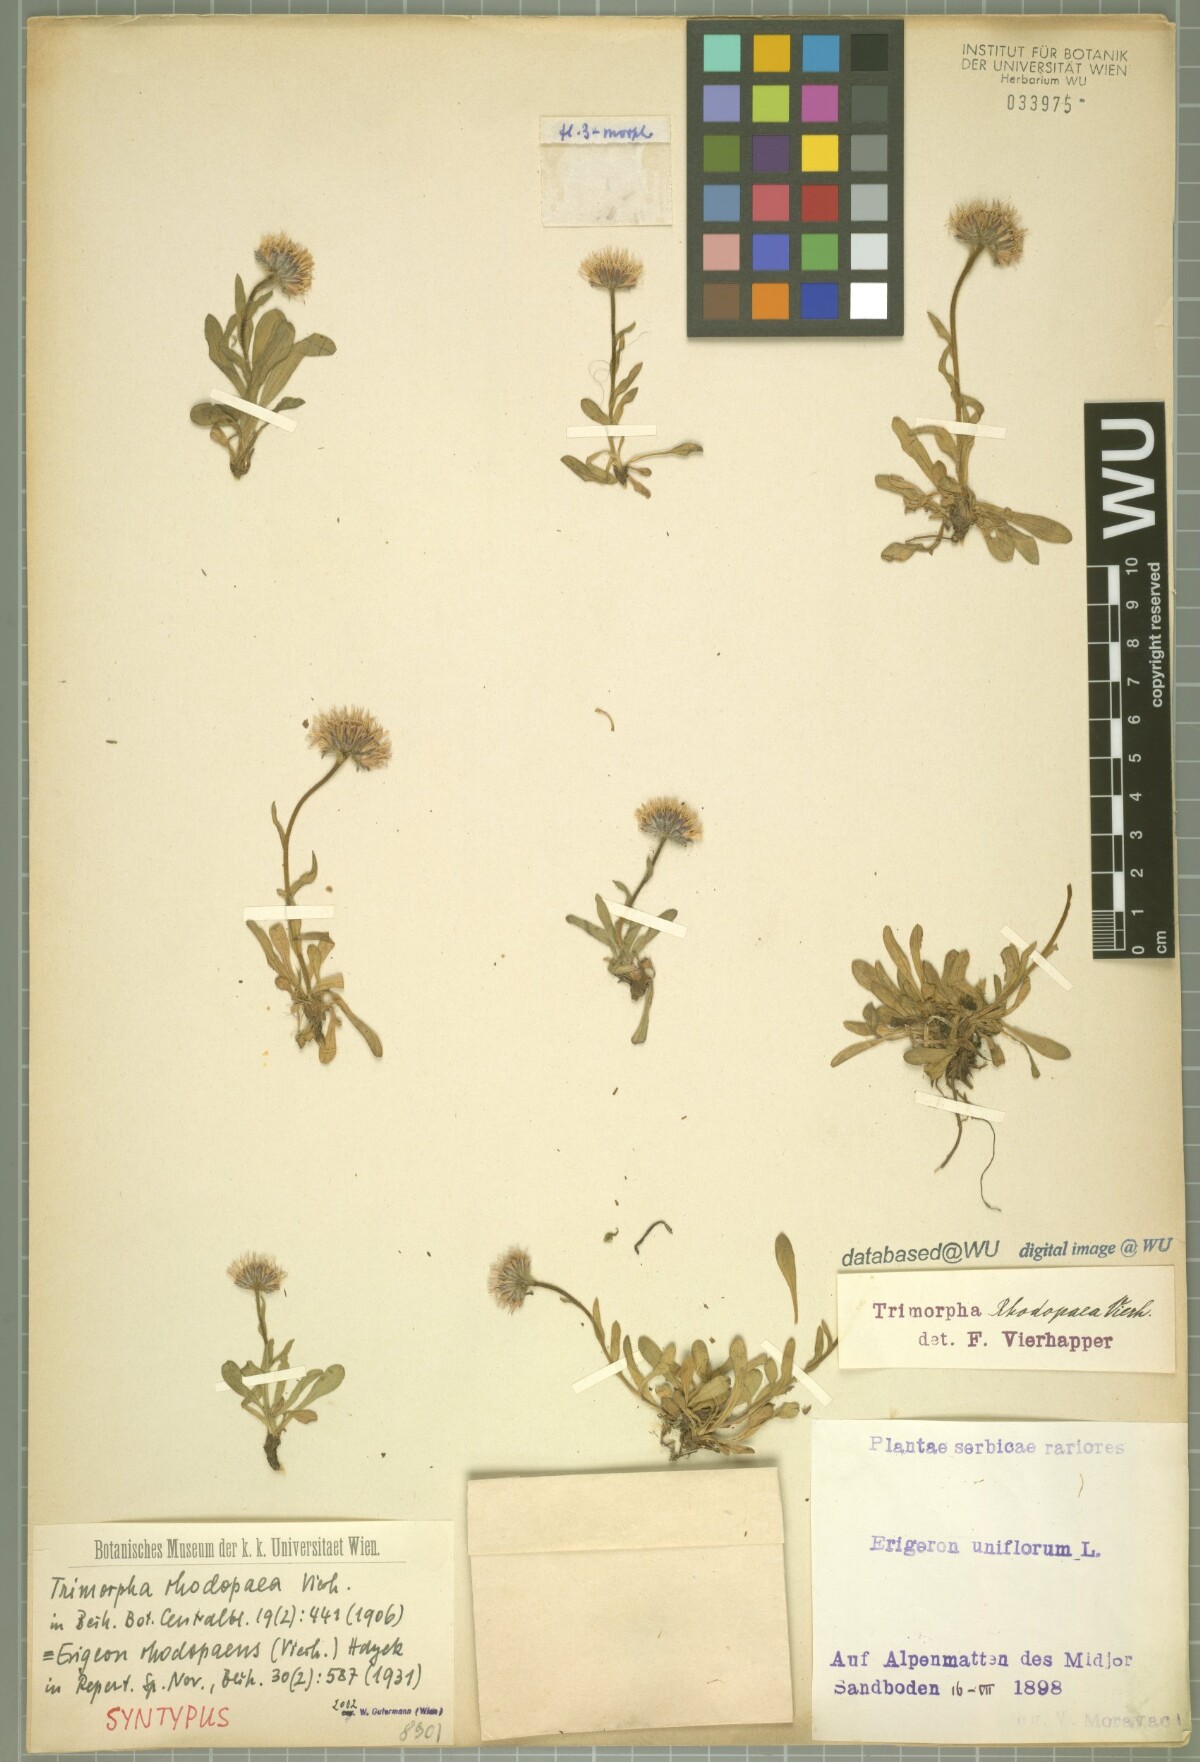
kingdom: Plantae
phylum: Tracheophyta
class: Magnoliopsida
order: Asterales
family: Asteraceae
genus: Erigeron
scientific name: Erigeron alpinus
